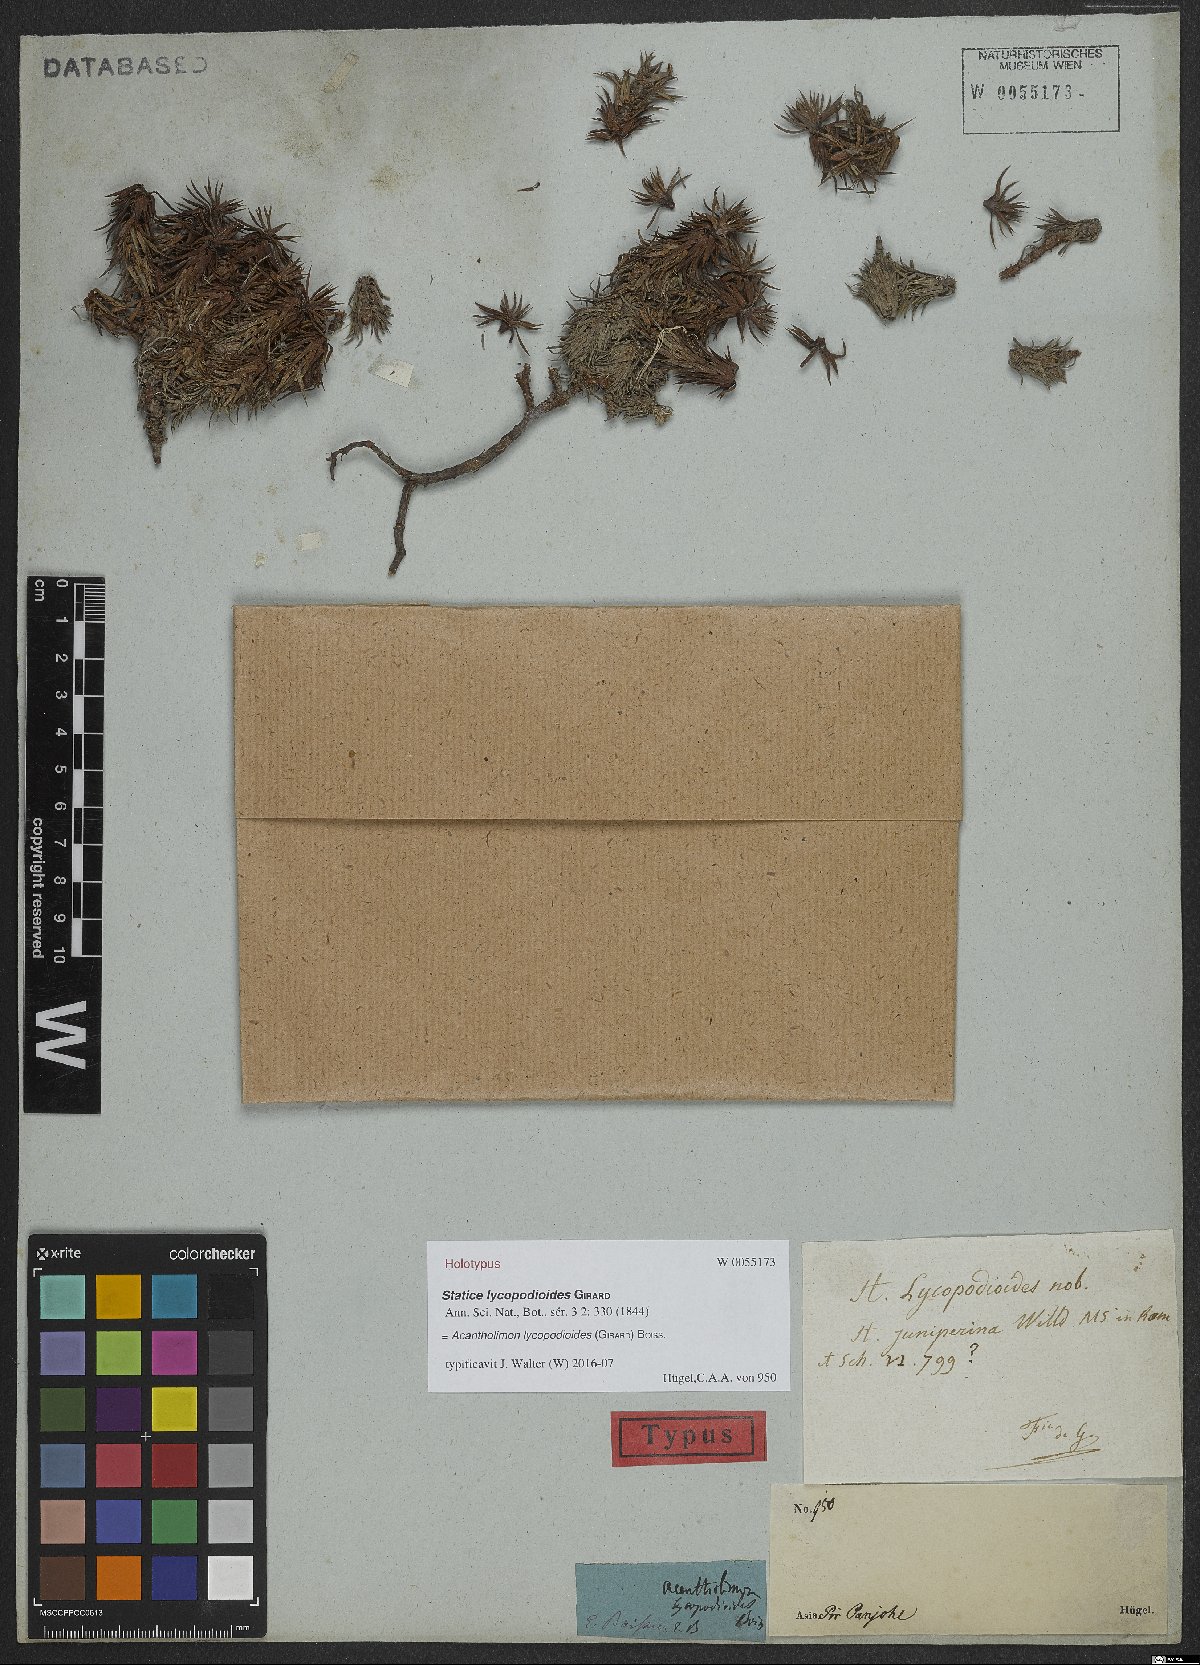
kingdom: Plantae
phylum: Tracheophyta
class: Magnoliopsida
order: Caryophyllales
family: Plumbaginaceae
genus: Acantholimon
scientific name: Acantholimon lycopodioides
